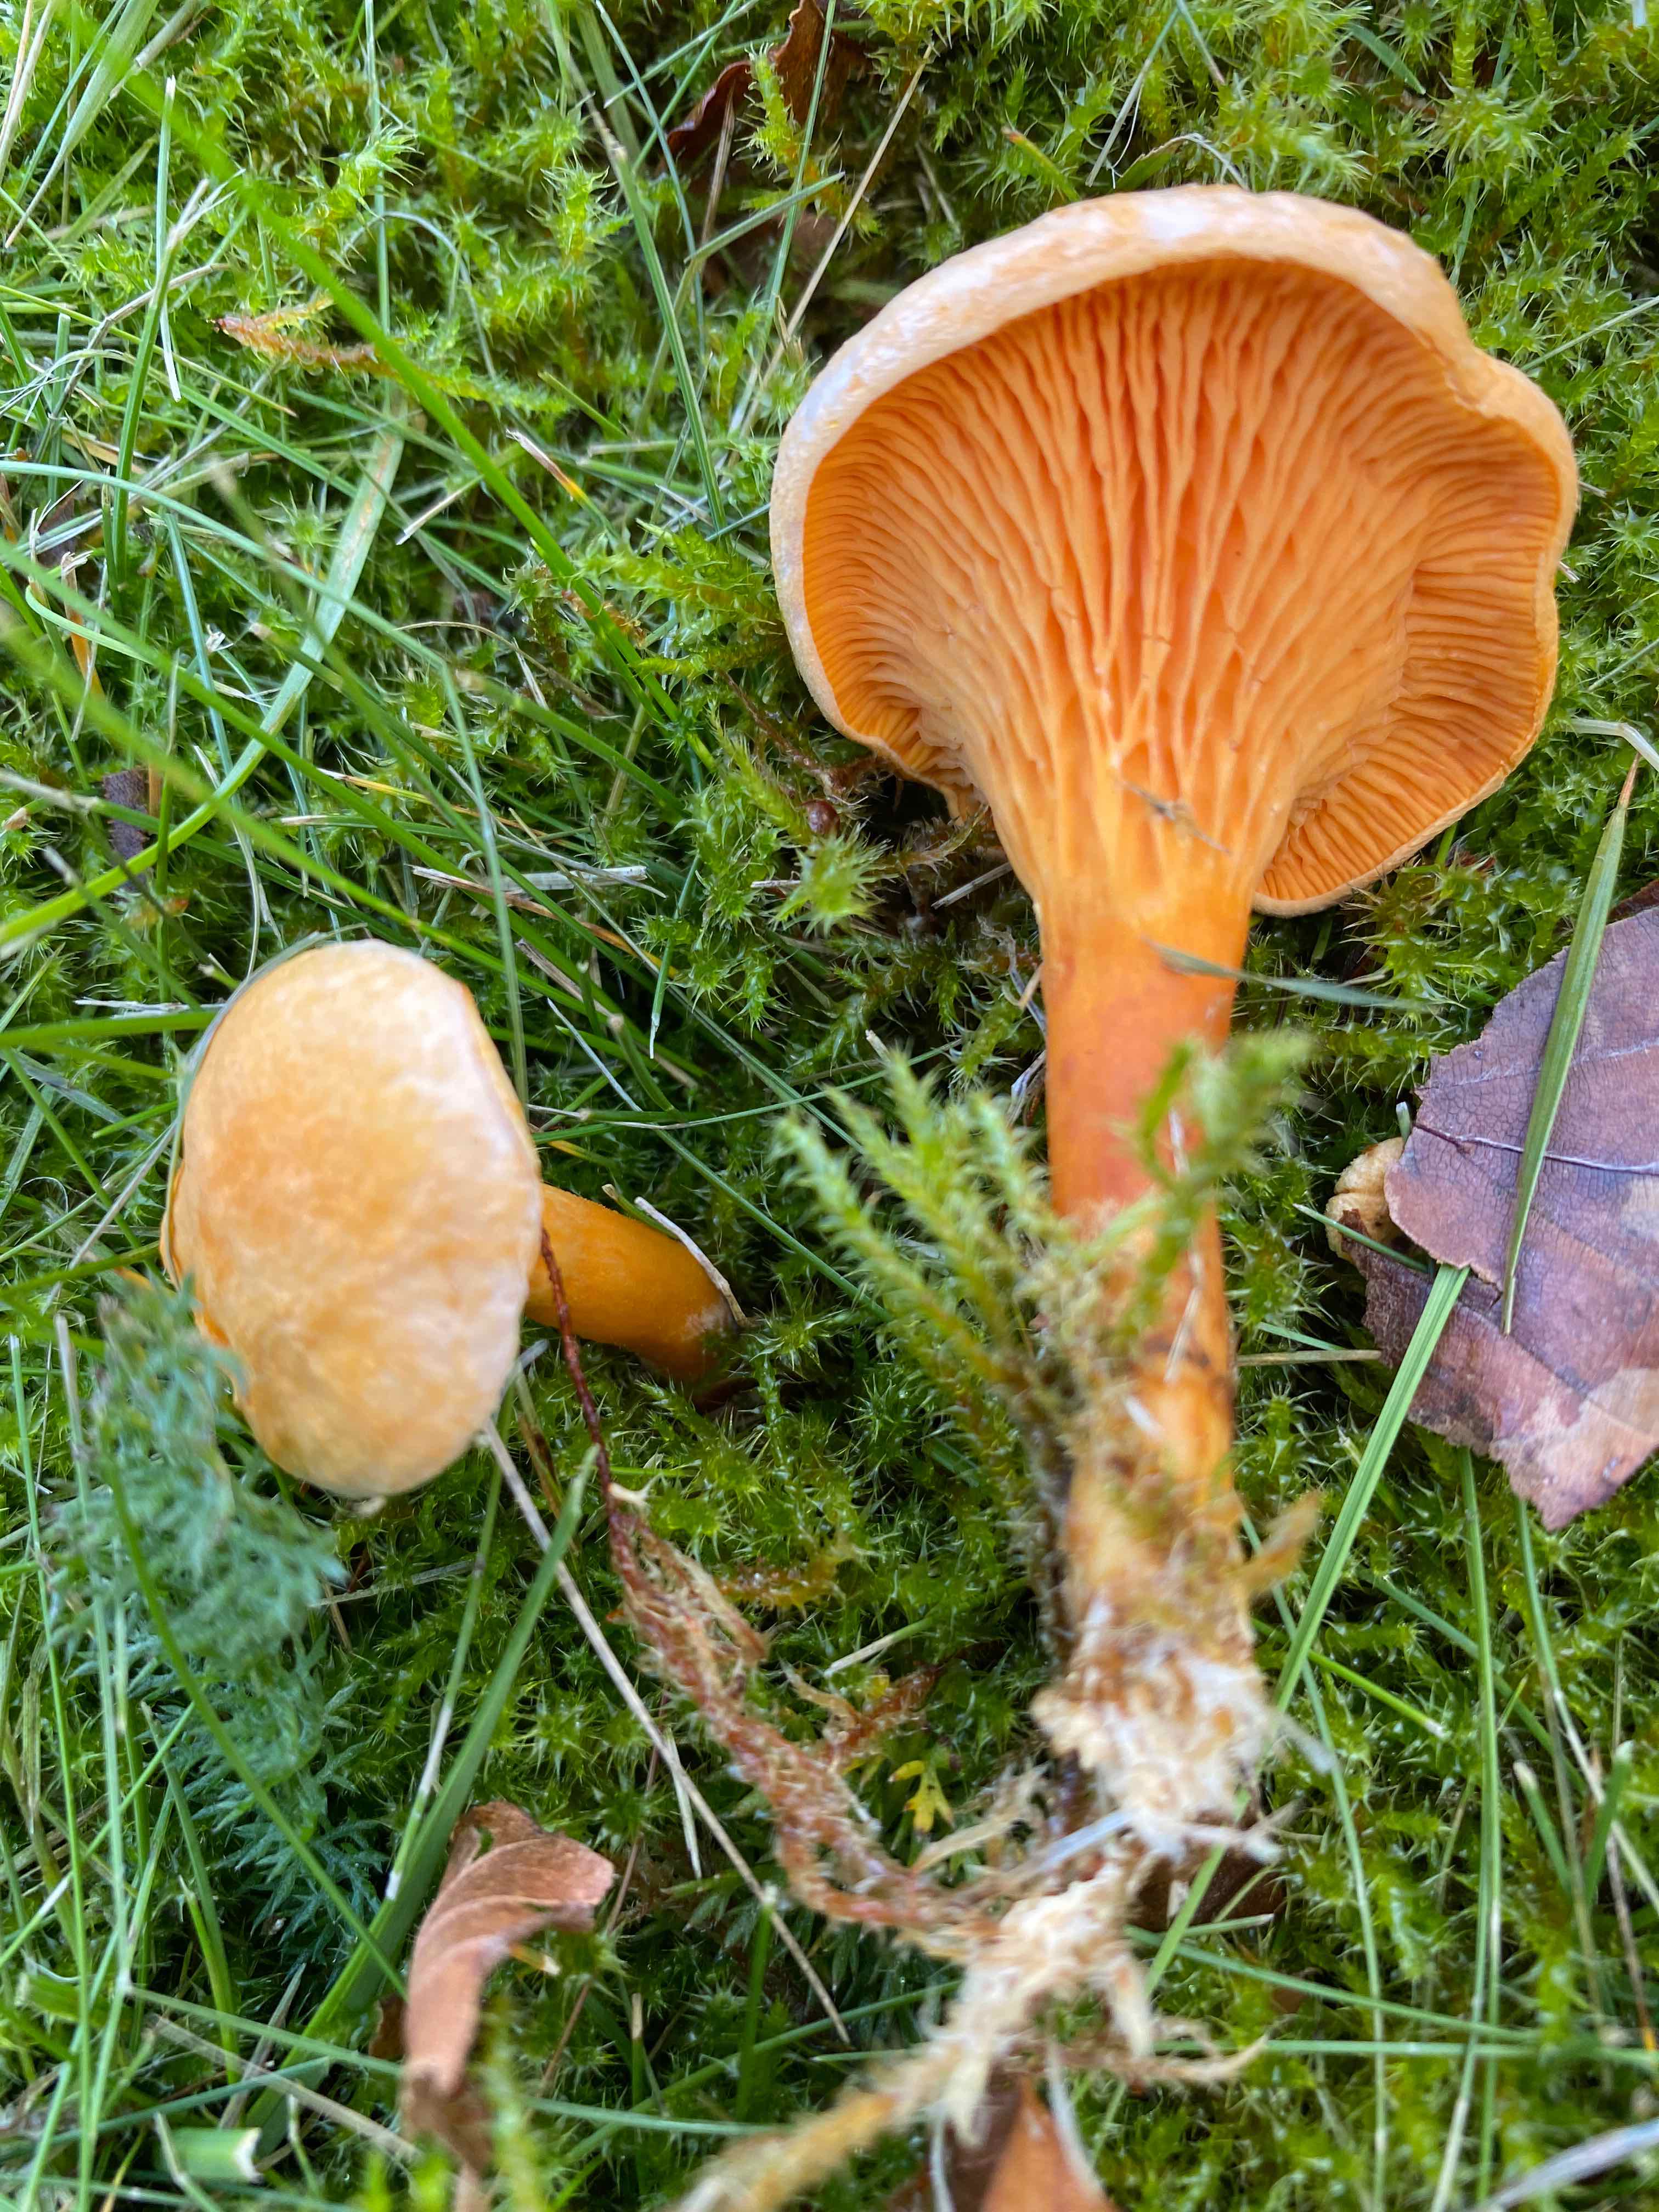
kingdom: Fungi
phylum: Basidiomycota
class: Agaricomycetes
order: Boletales
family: Hygrophoropsidaceae
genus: Hygrophoropsis
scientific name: Hygrophoropsis aurantiaca
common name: almindelig orangekantarel
